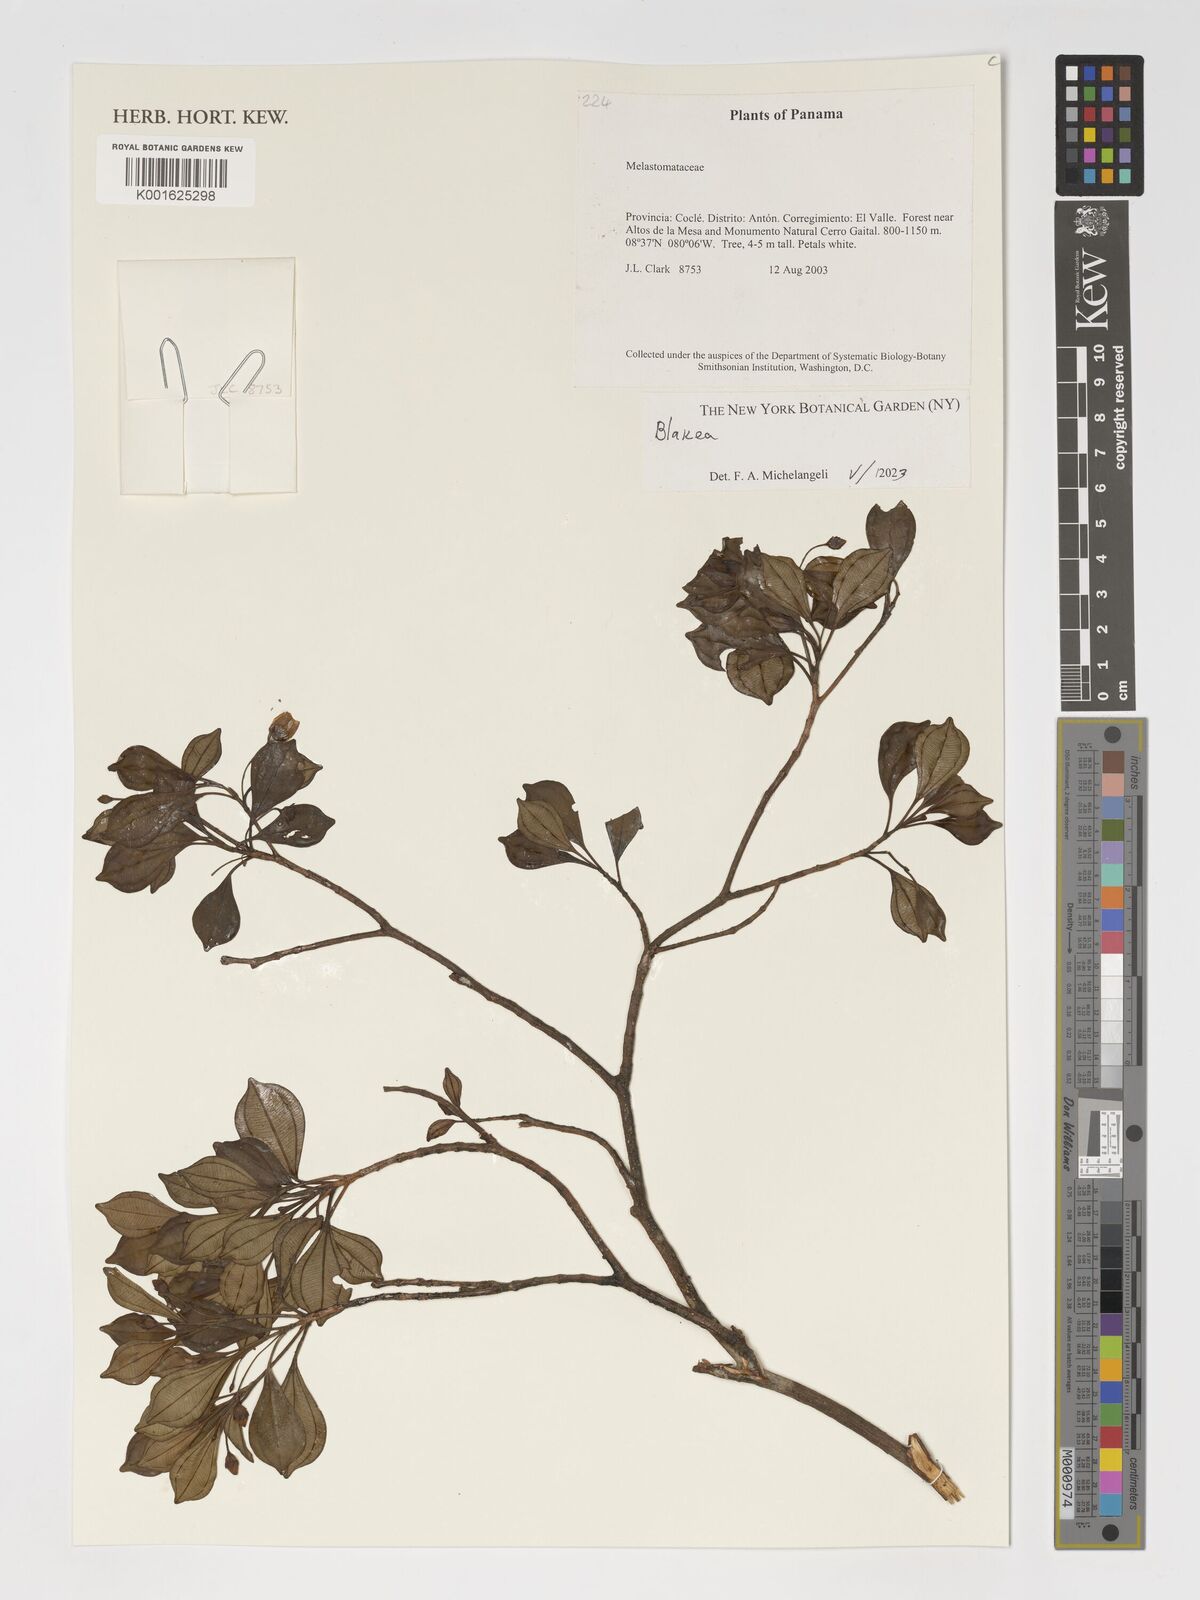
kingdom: Plantae
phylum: Tracheophyta
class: Magnoliopsida
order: Myrtales
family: Melastomataceae
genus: Blakea
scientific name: Blakea
